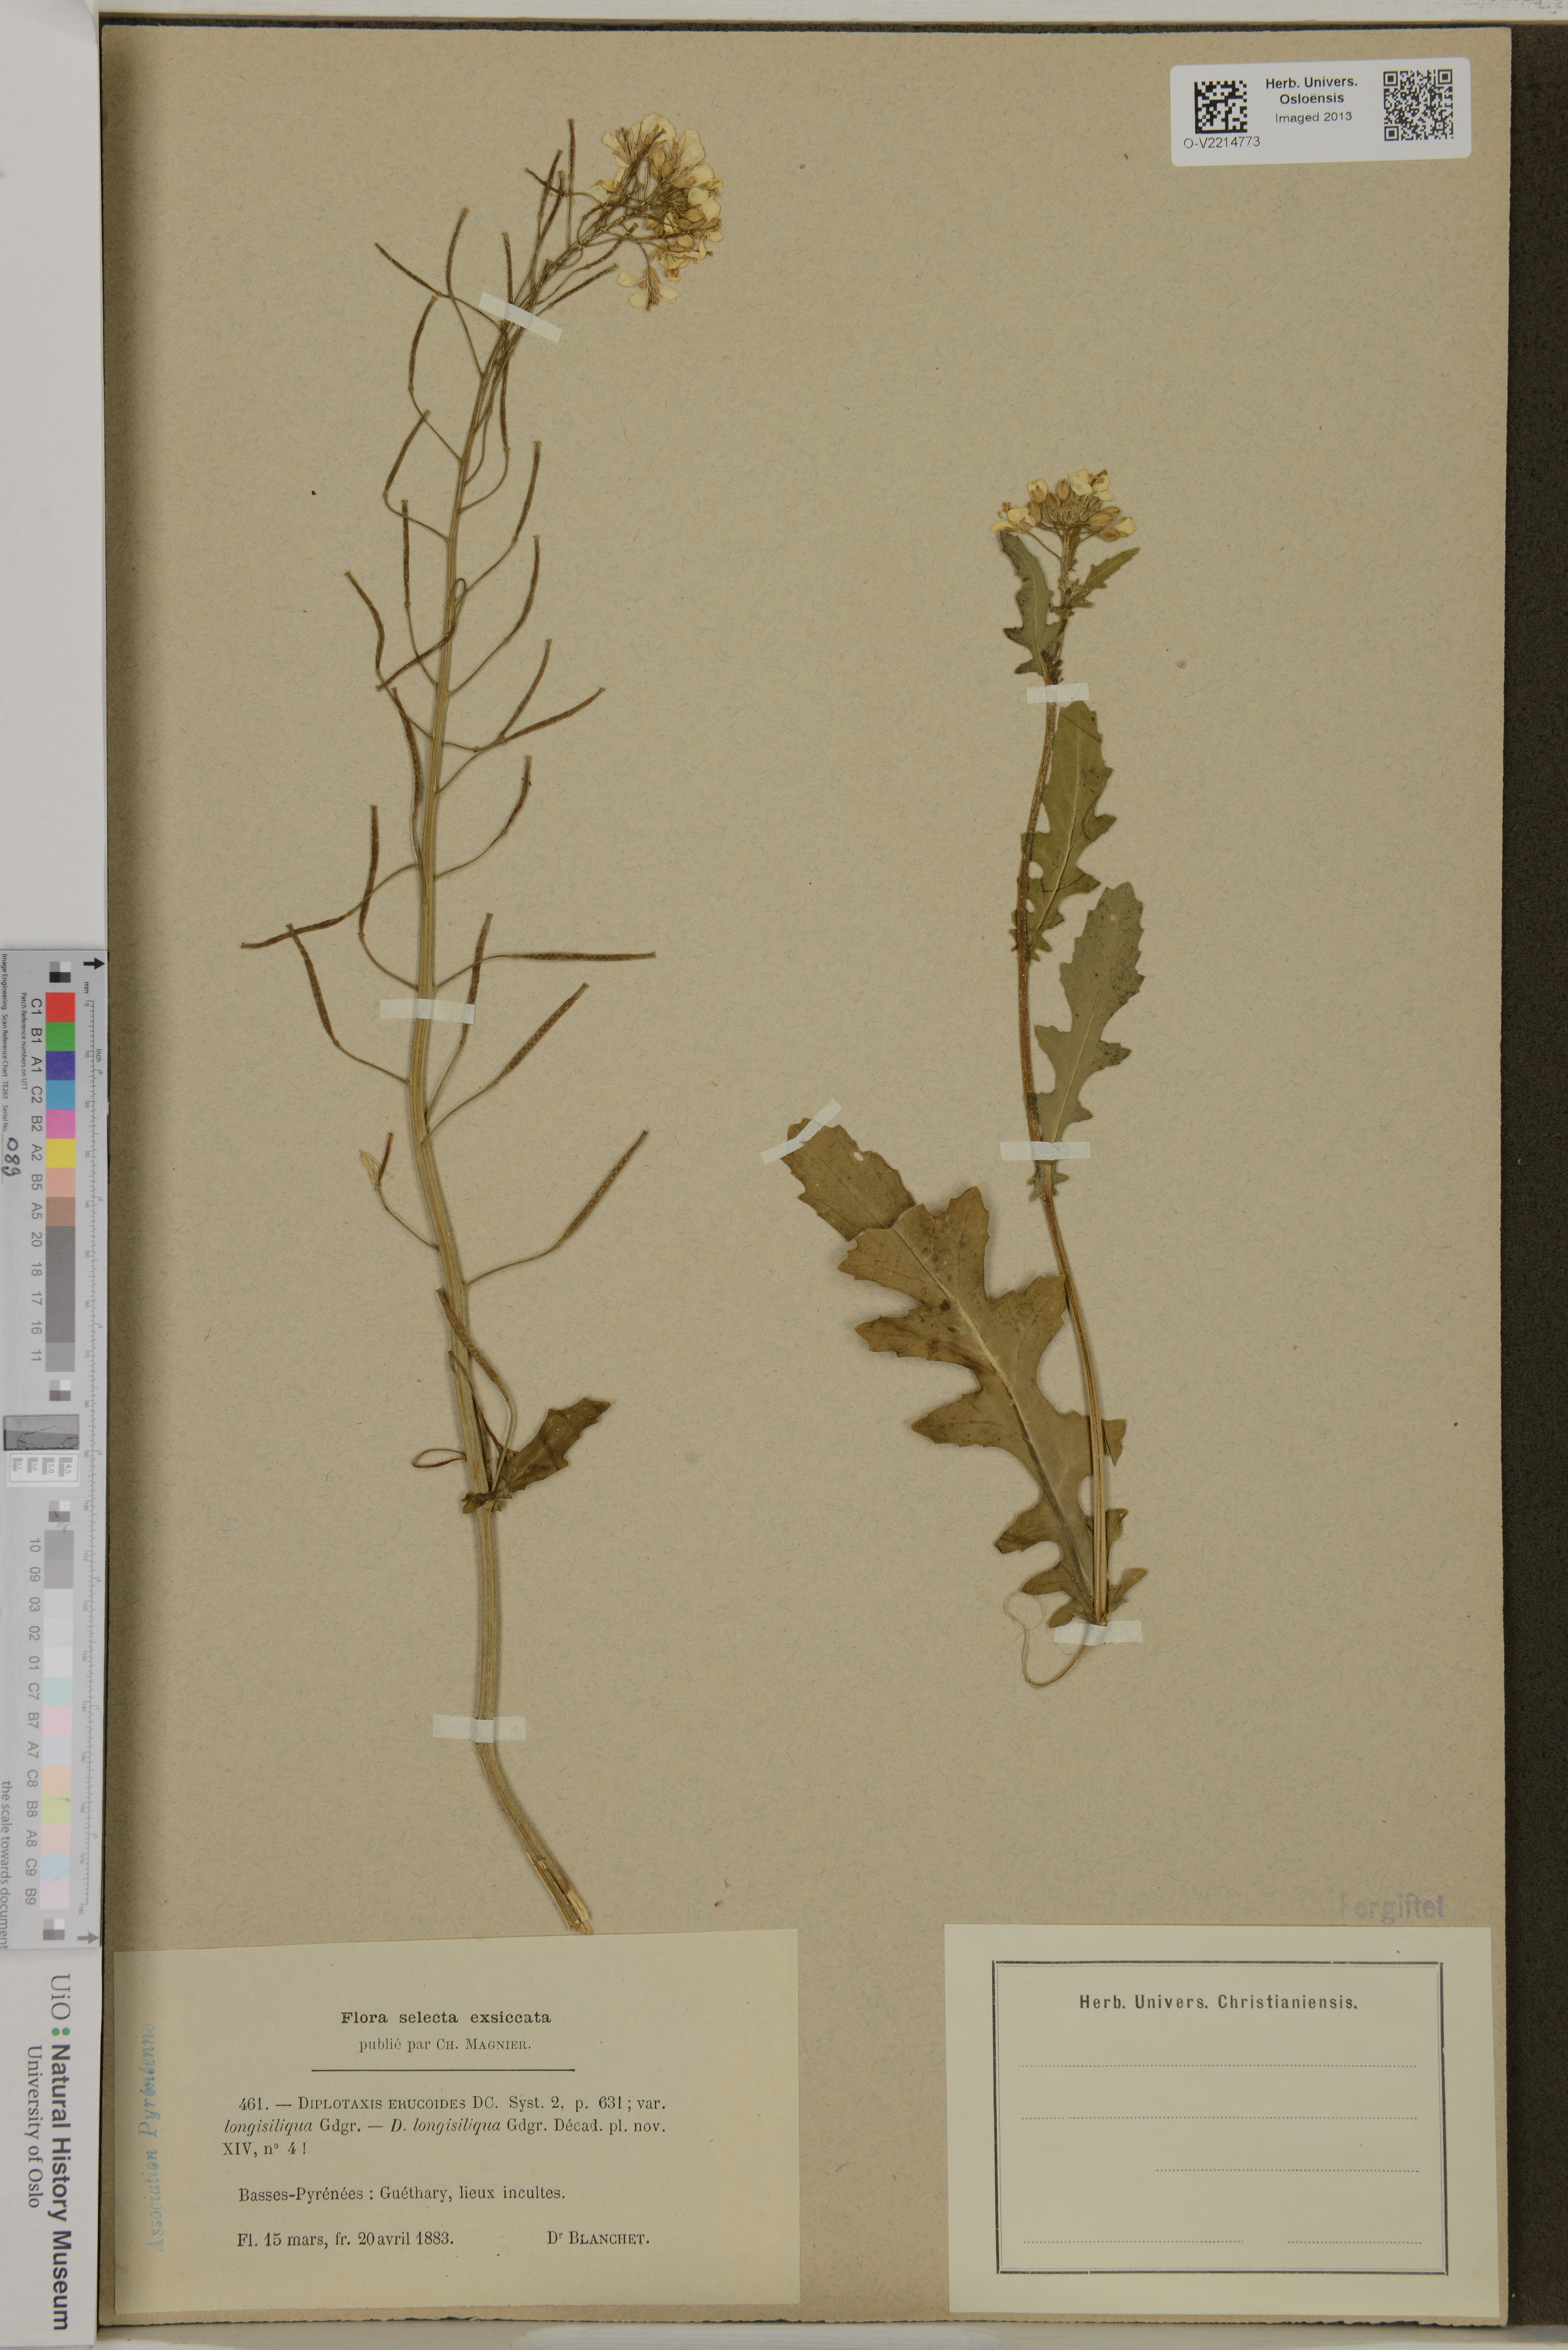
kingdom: Plantae
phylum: Tracheophyta
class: Magnoliopsida
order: Brassicales
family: Brassicaceae
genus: Diplotaxis
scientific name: Diplotaxis erucoides
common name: White rocket
